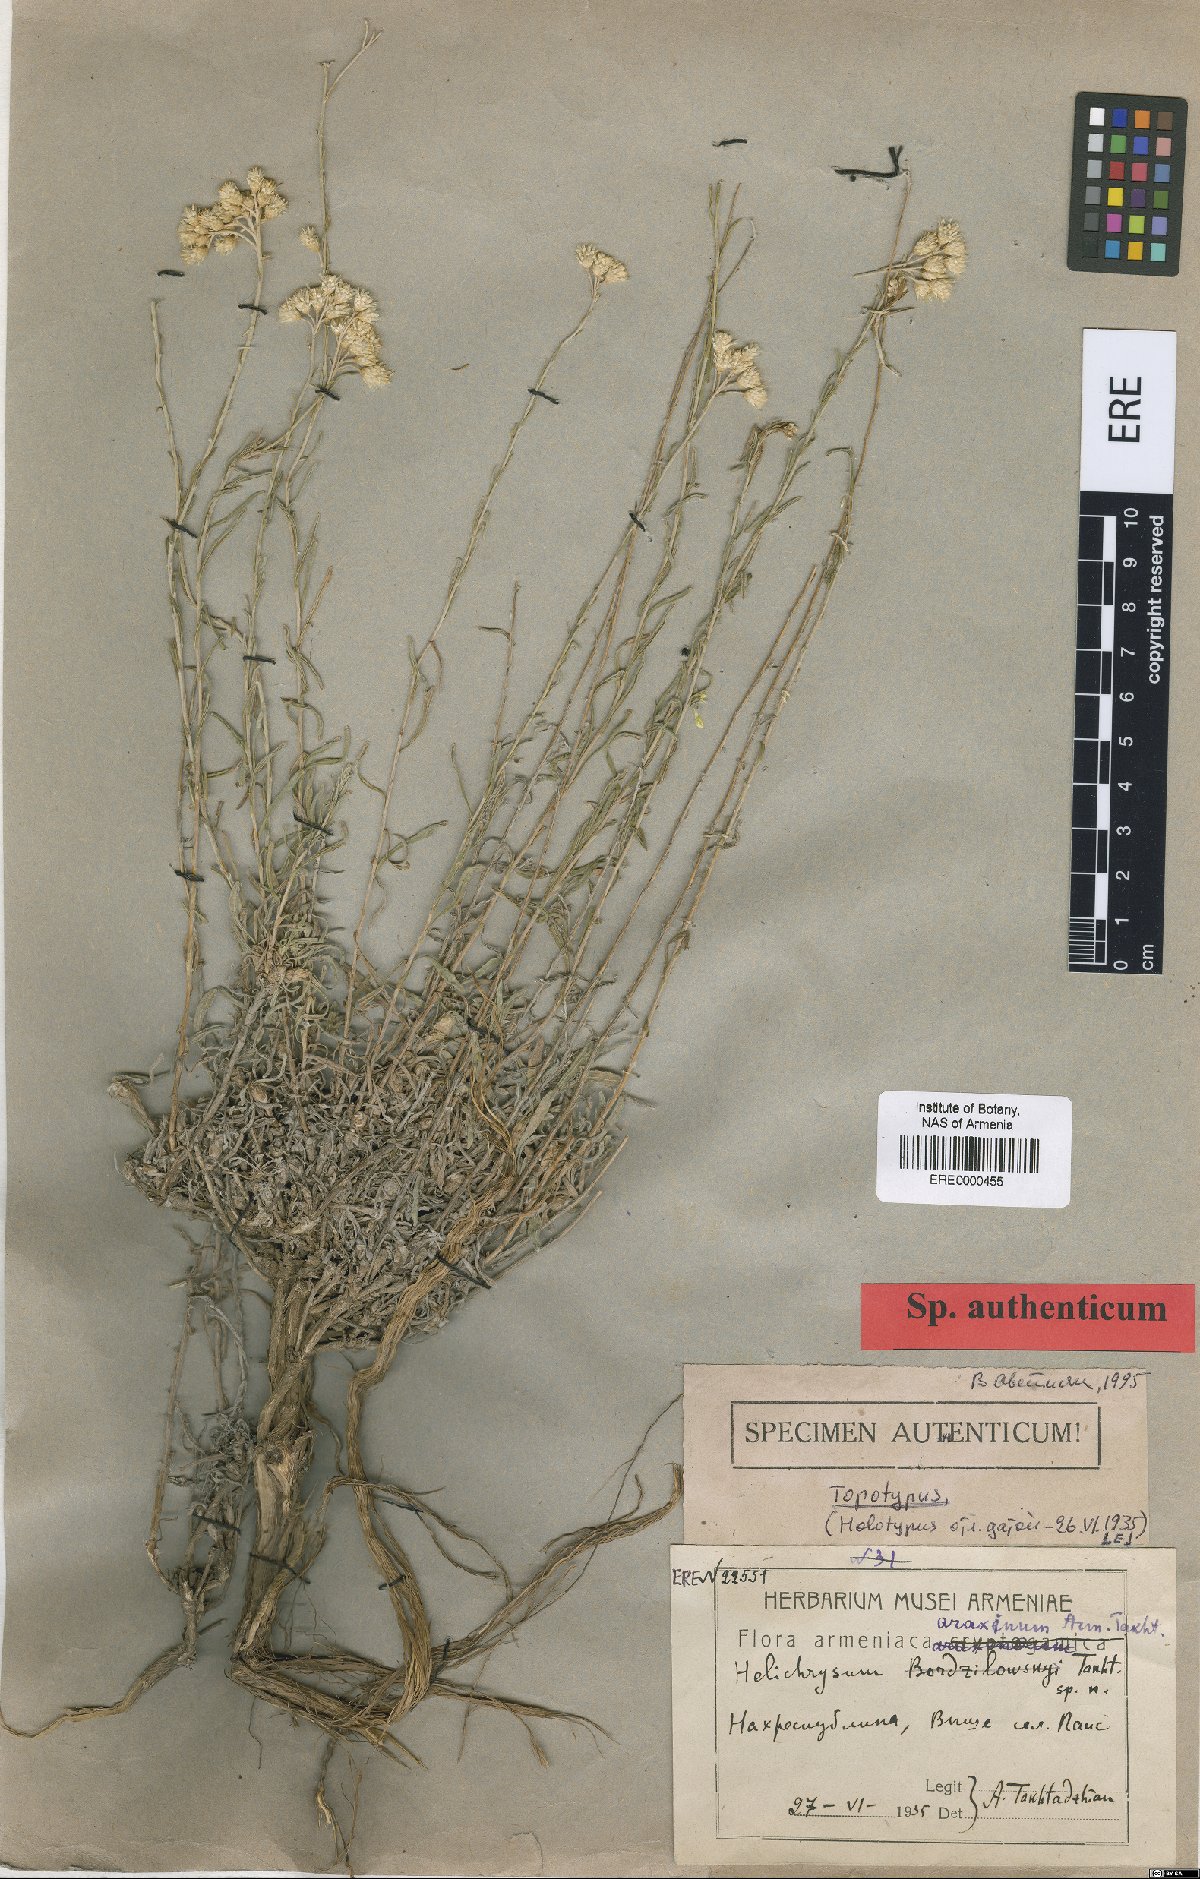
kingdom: Plantae
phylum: Tracheophyta
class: Magnoliopsida
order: Asterales
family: Asteraceae
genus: Helichrysum
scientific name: Helichrysum araxinum
